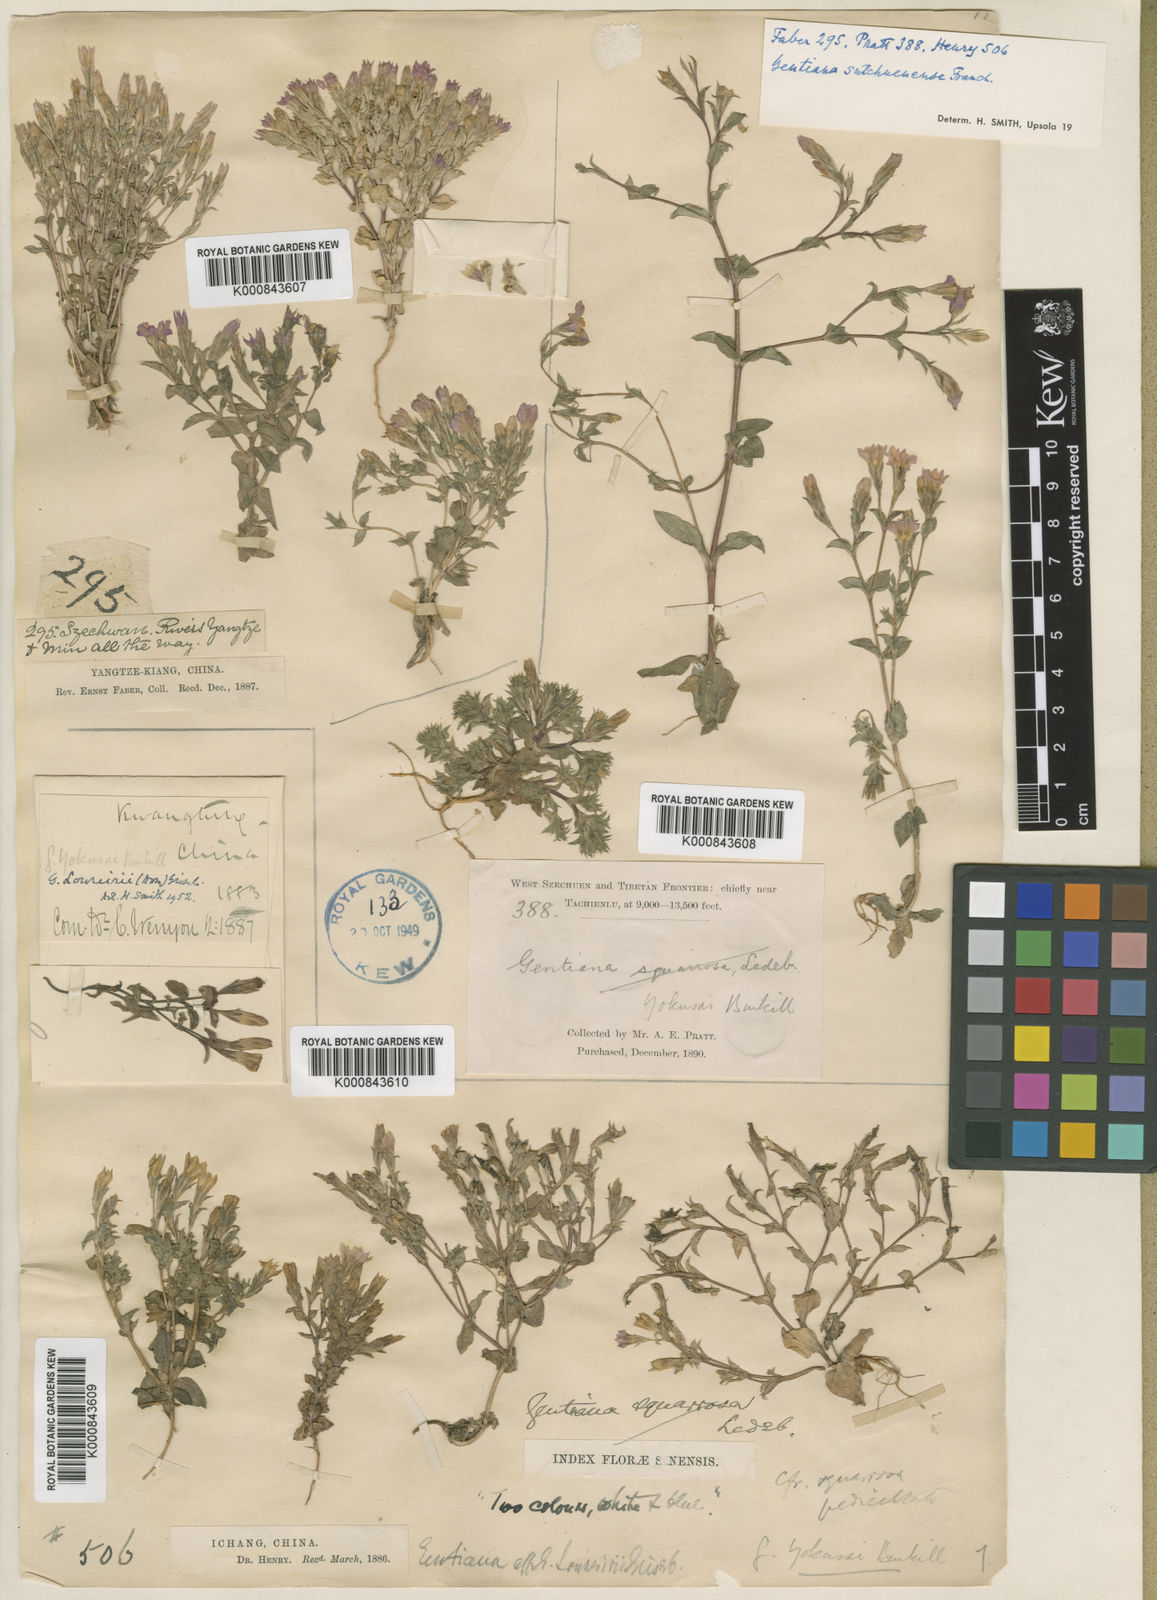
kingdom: Plantae
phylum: Tracheophyta
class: Magnoliopsida
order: Gentianales
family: Gentianaceae
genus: Gentiana
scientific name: Gentiana yokusai
